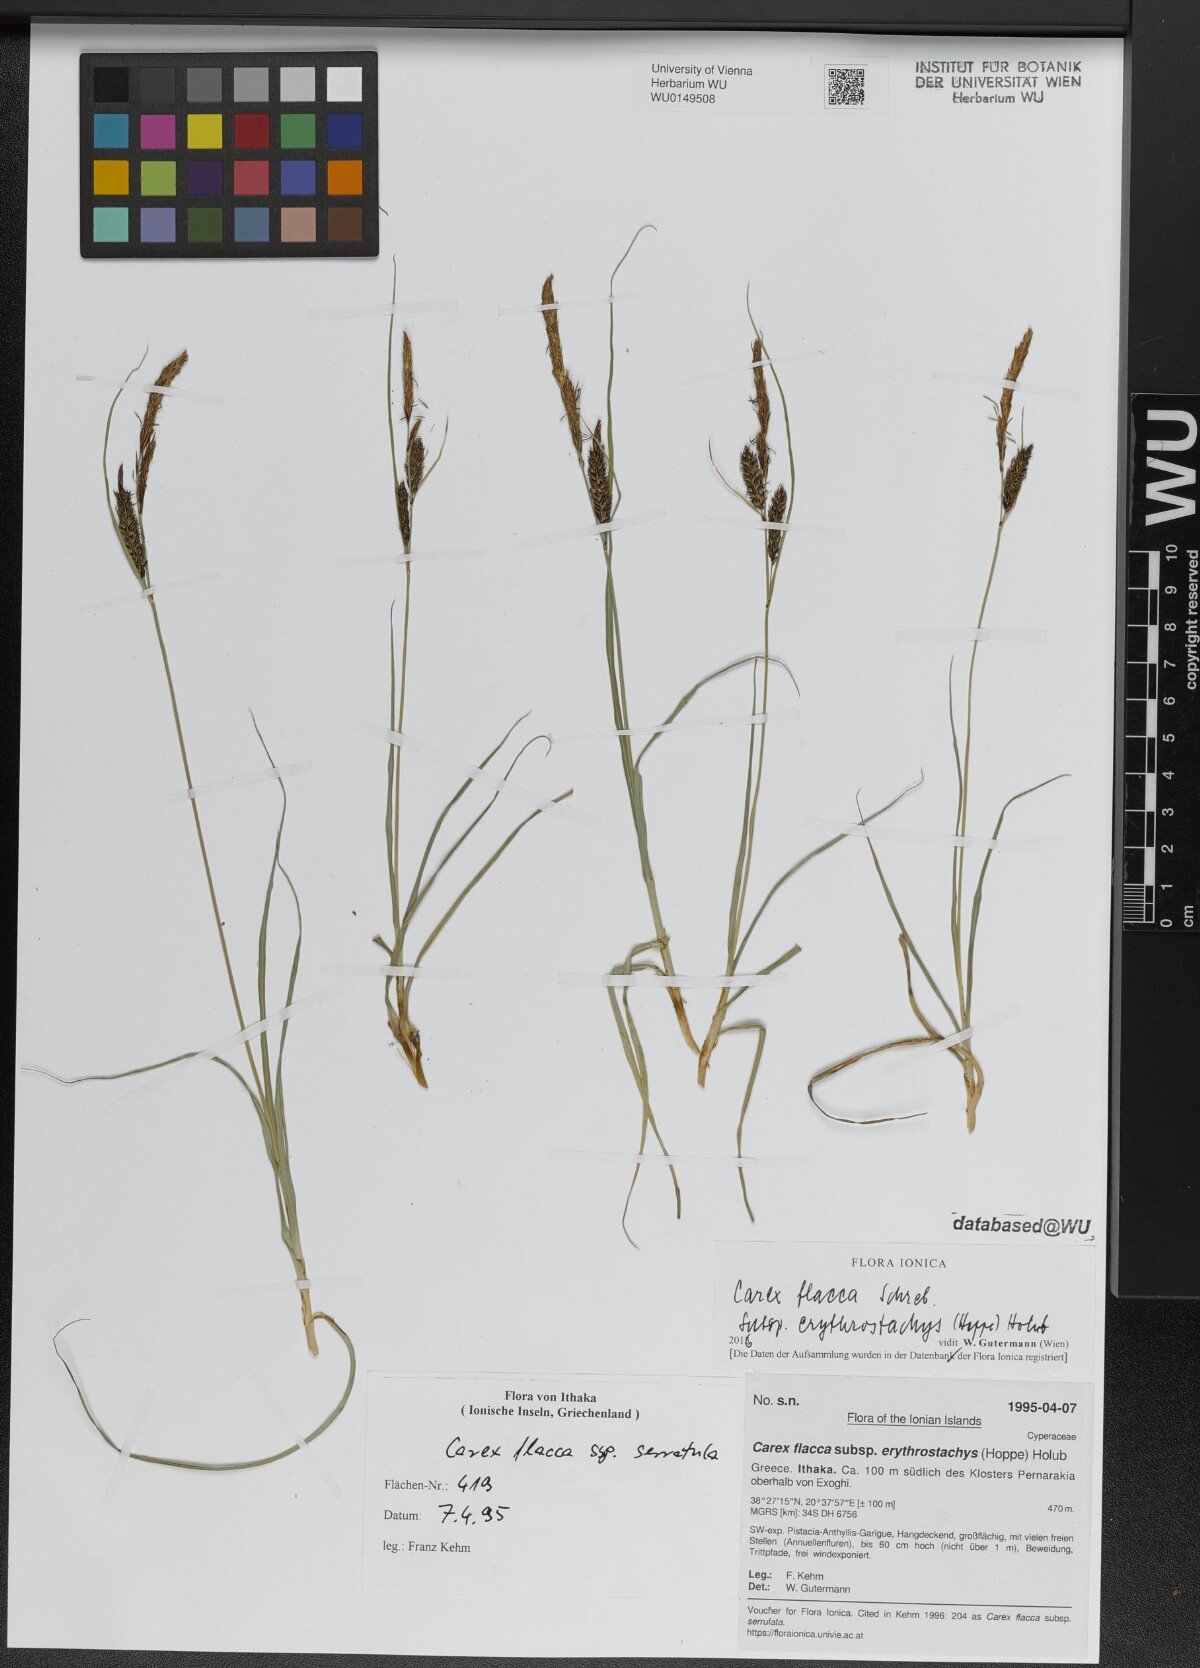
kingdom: Plantae
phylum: Tracheophyta
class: Liliopsida
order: Poales
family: Cyperaceae
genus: Carex
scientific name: Carex flacca
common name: Glaucous sedge
